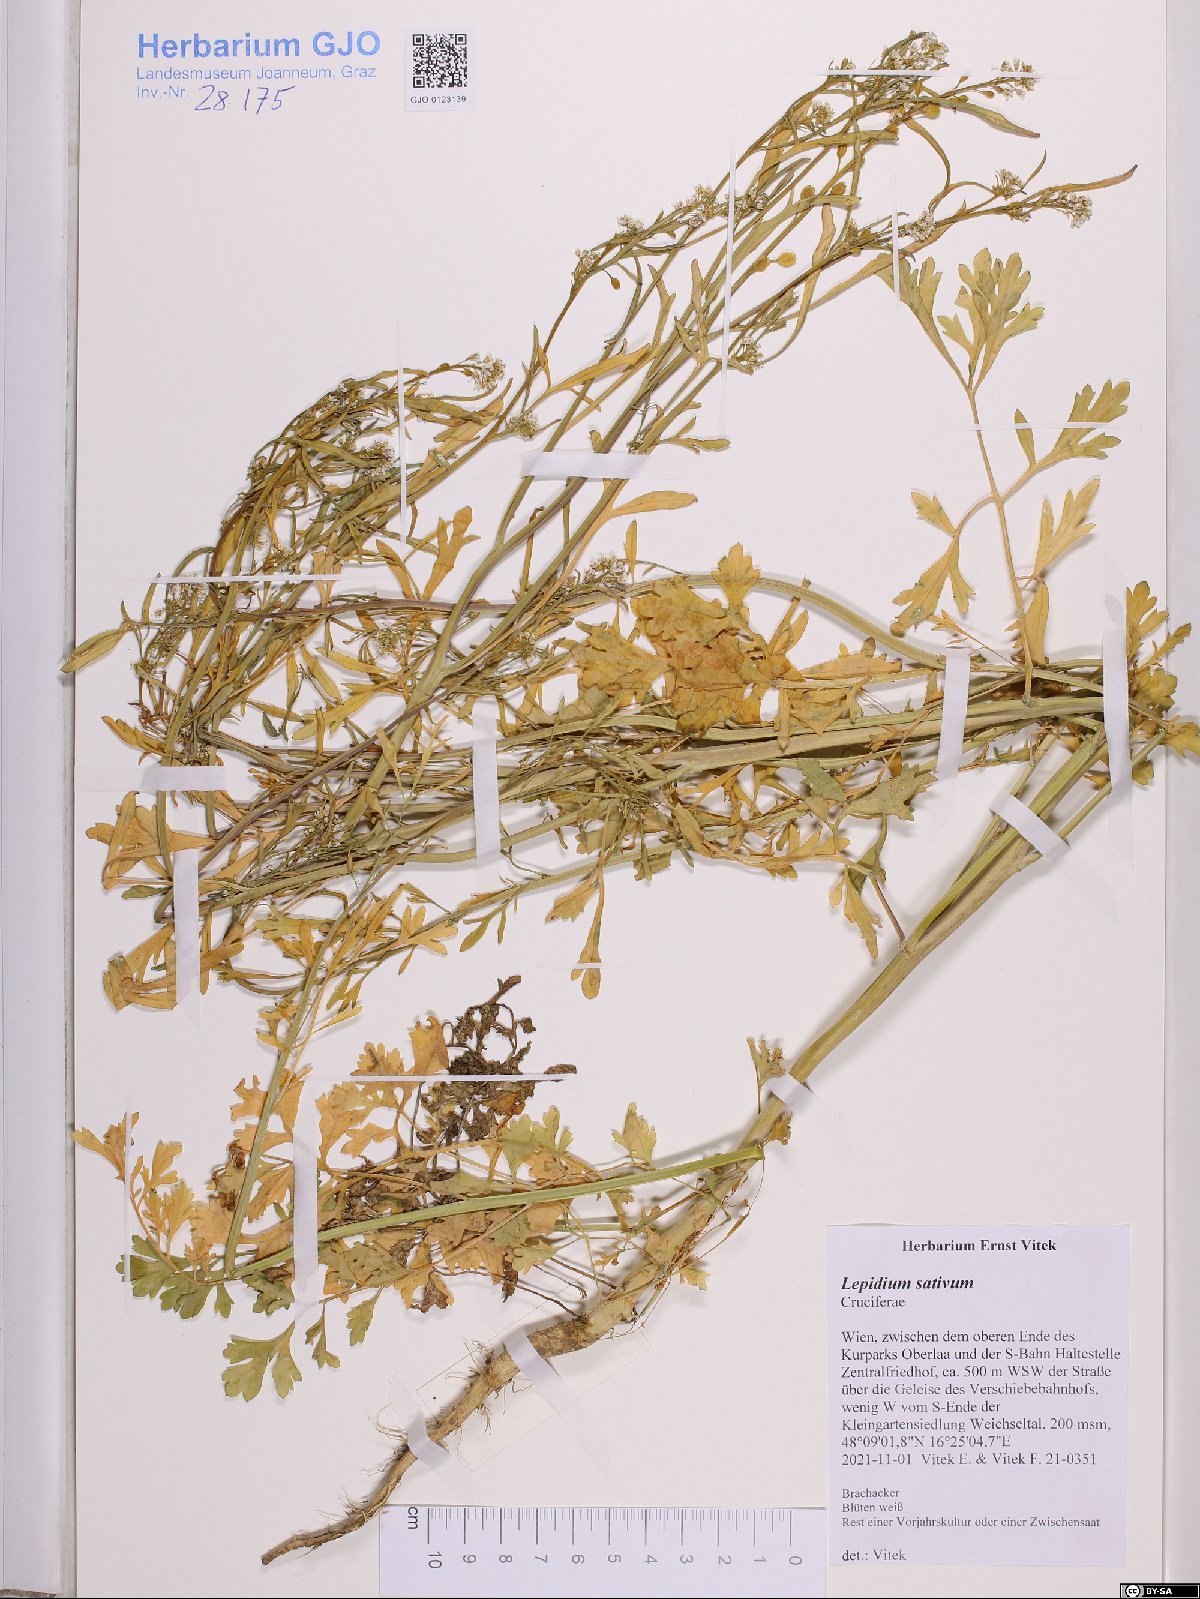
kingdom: Plantae
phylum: Tracheophyta
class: Magnoliopsida
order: Brassicales
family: Brassicaceae
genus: Lepidium
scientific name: Lepidium sativum
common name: Garden cress
